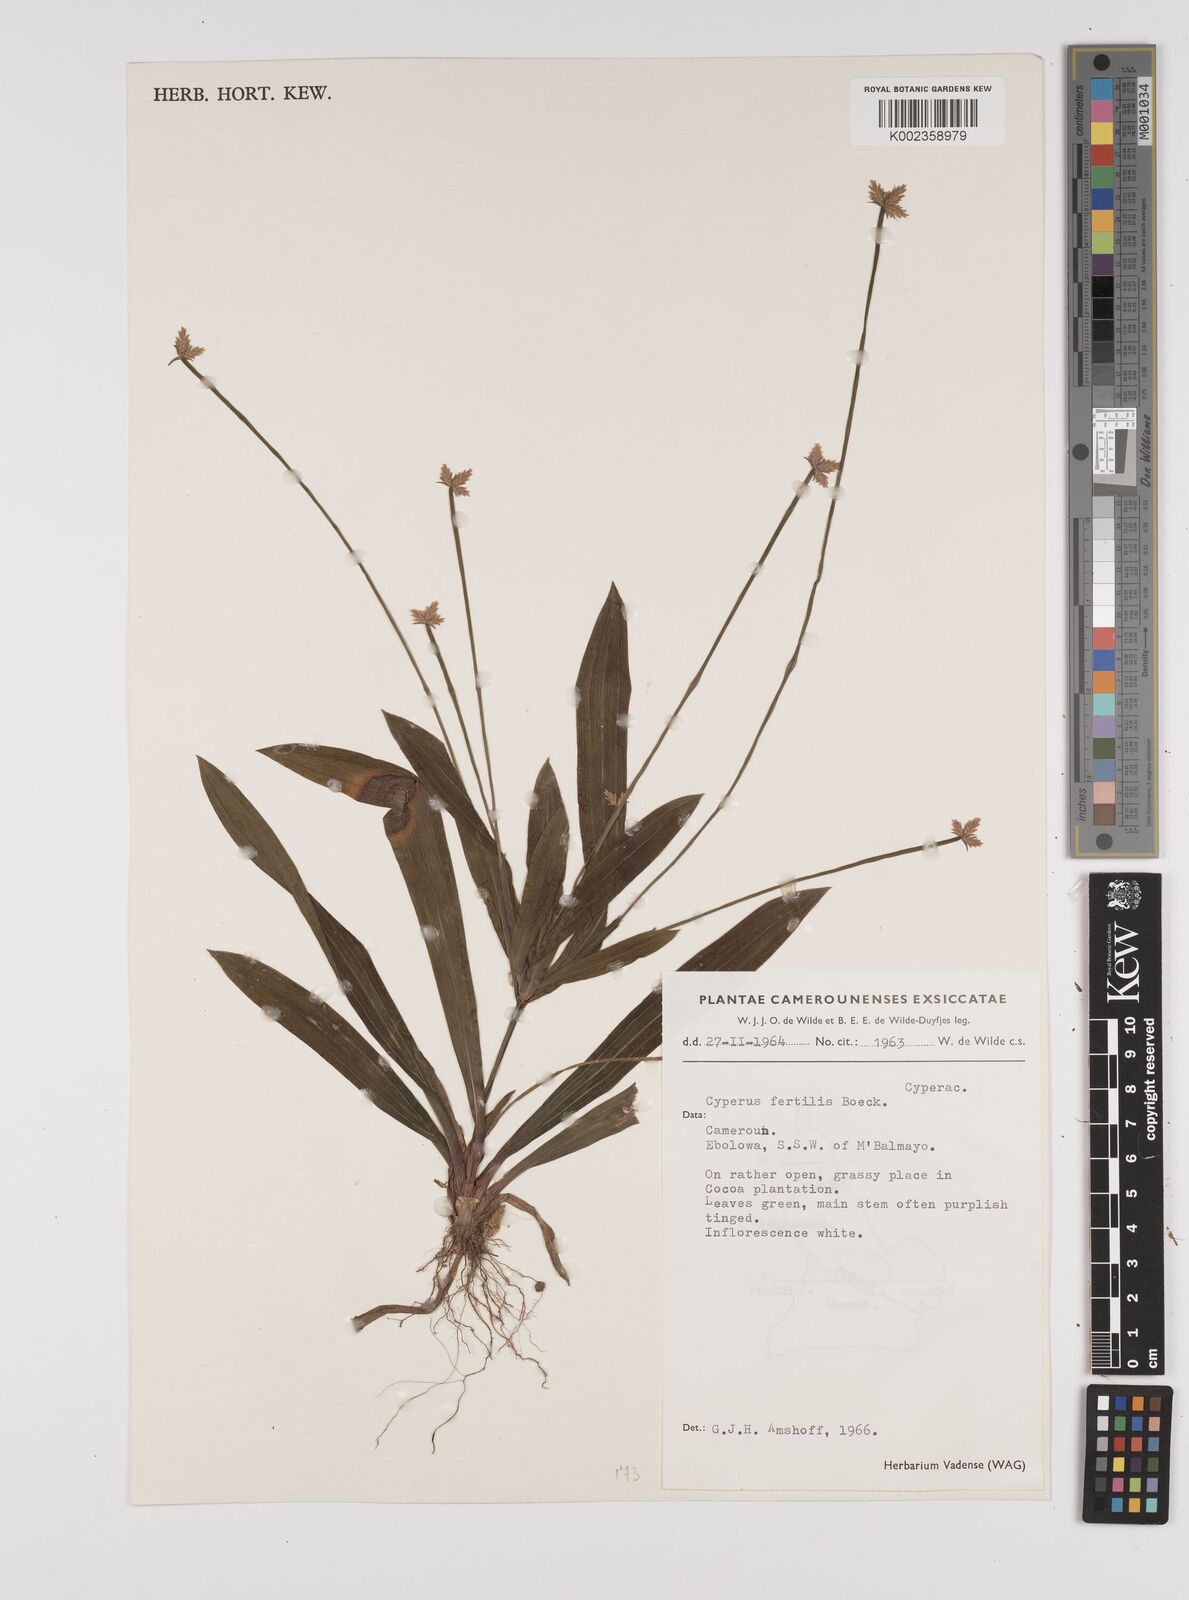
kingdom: Plantae
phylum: Tracheophyta
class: Liliopsida
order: Poales
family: Cyperaceae
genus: Cyperus
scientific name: Cyperus fertilis
